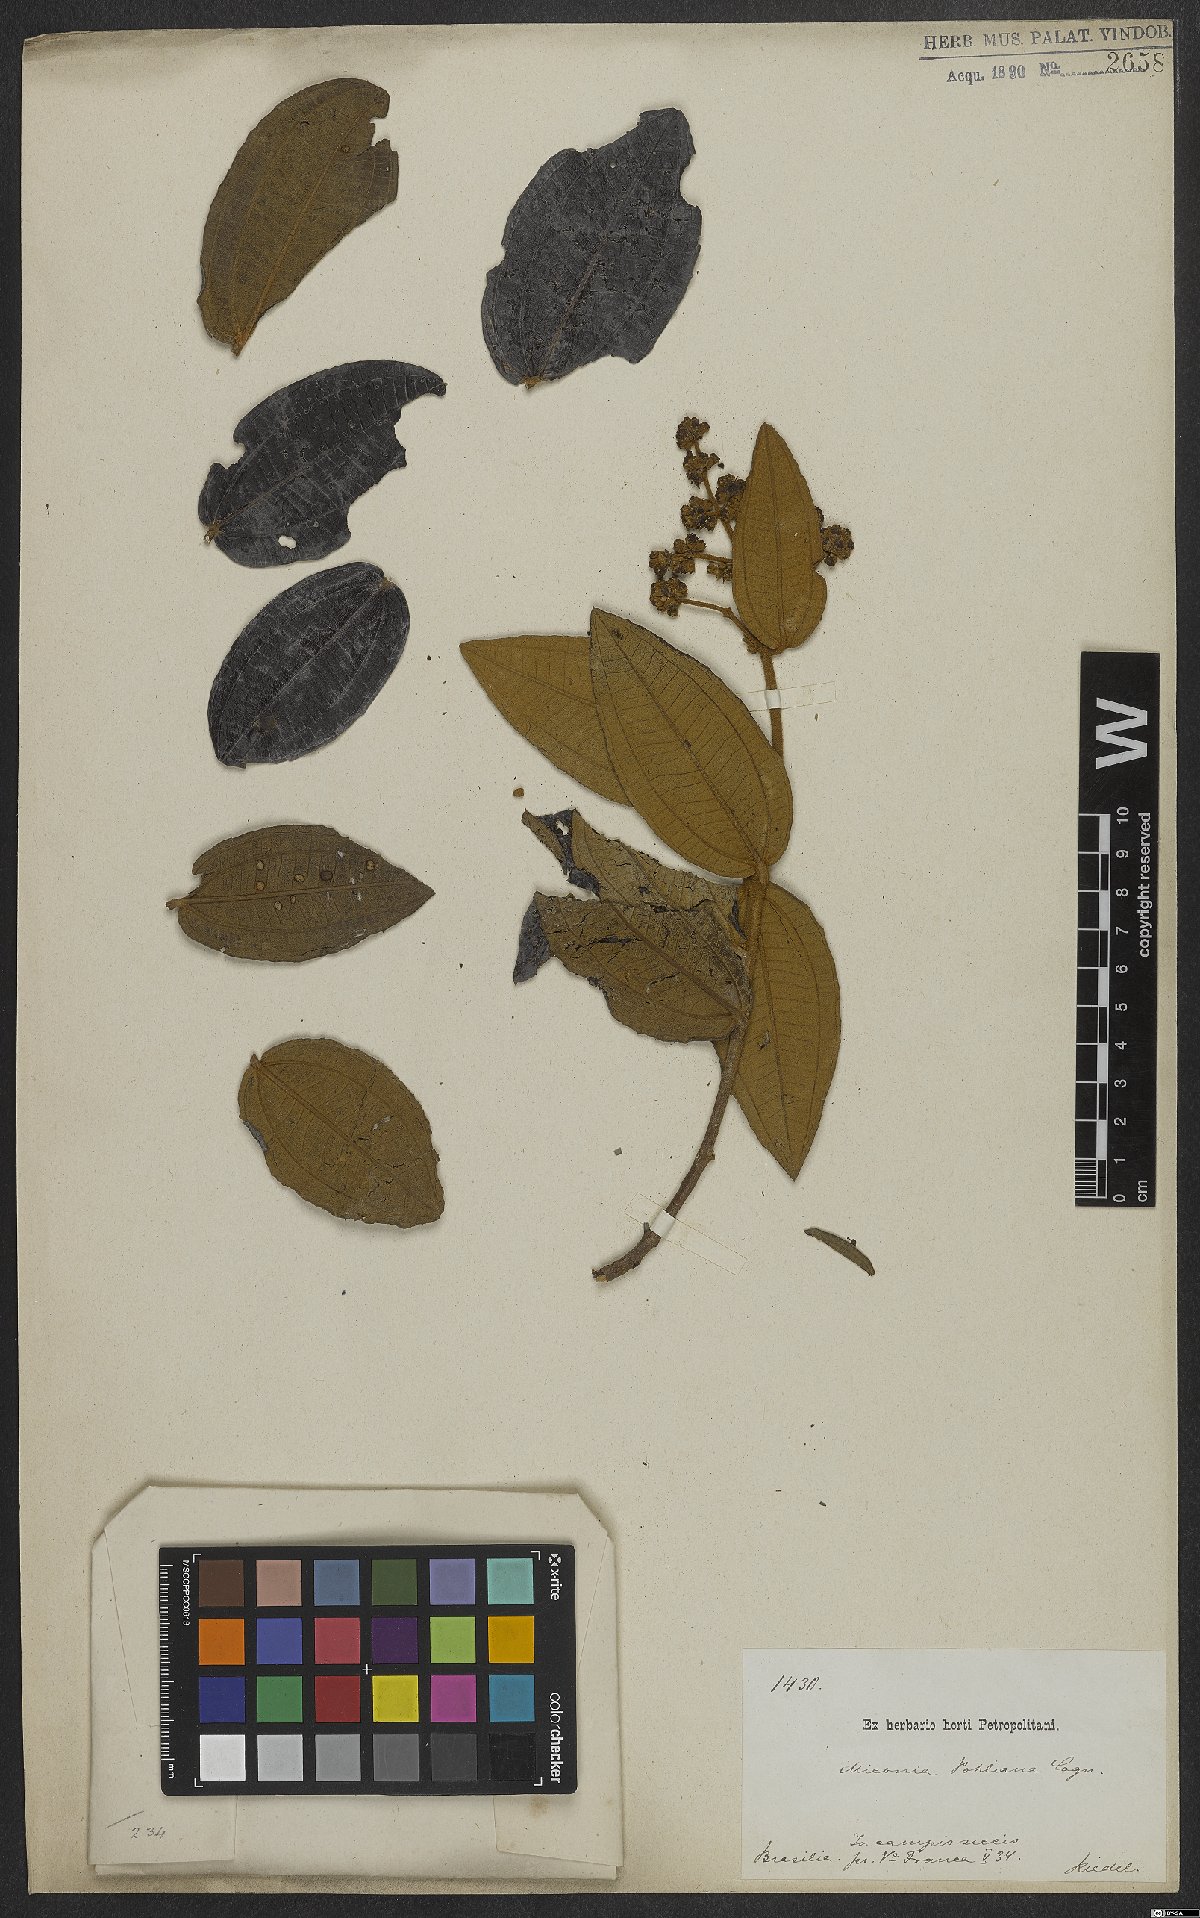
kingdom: Plantae
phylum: Tracheophyta
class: Magnoliopsida
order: Myrtales
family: Melastomataceae
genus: Miconia
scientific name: Miconia leucocarpa
